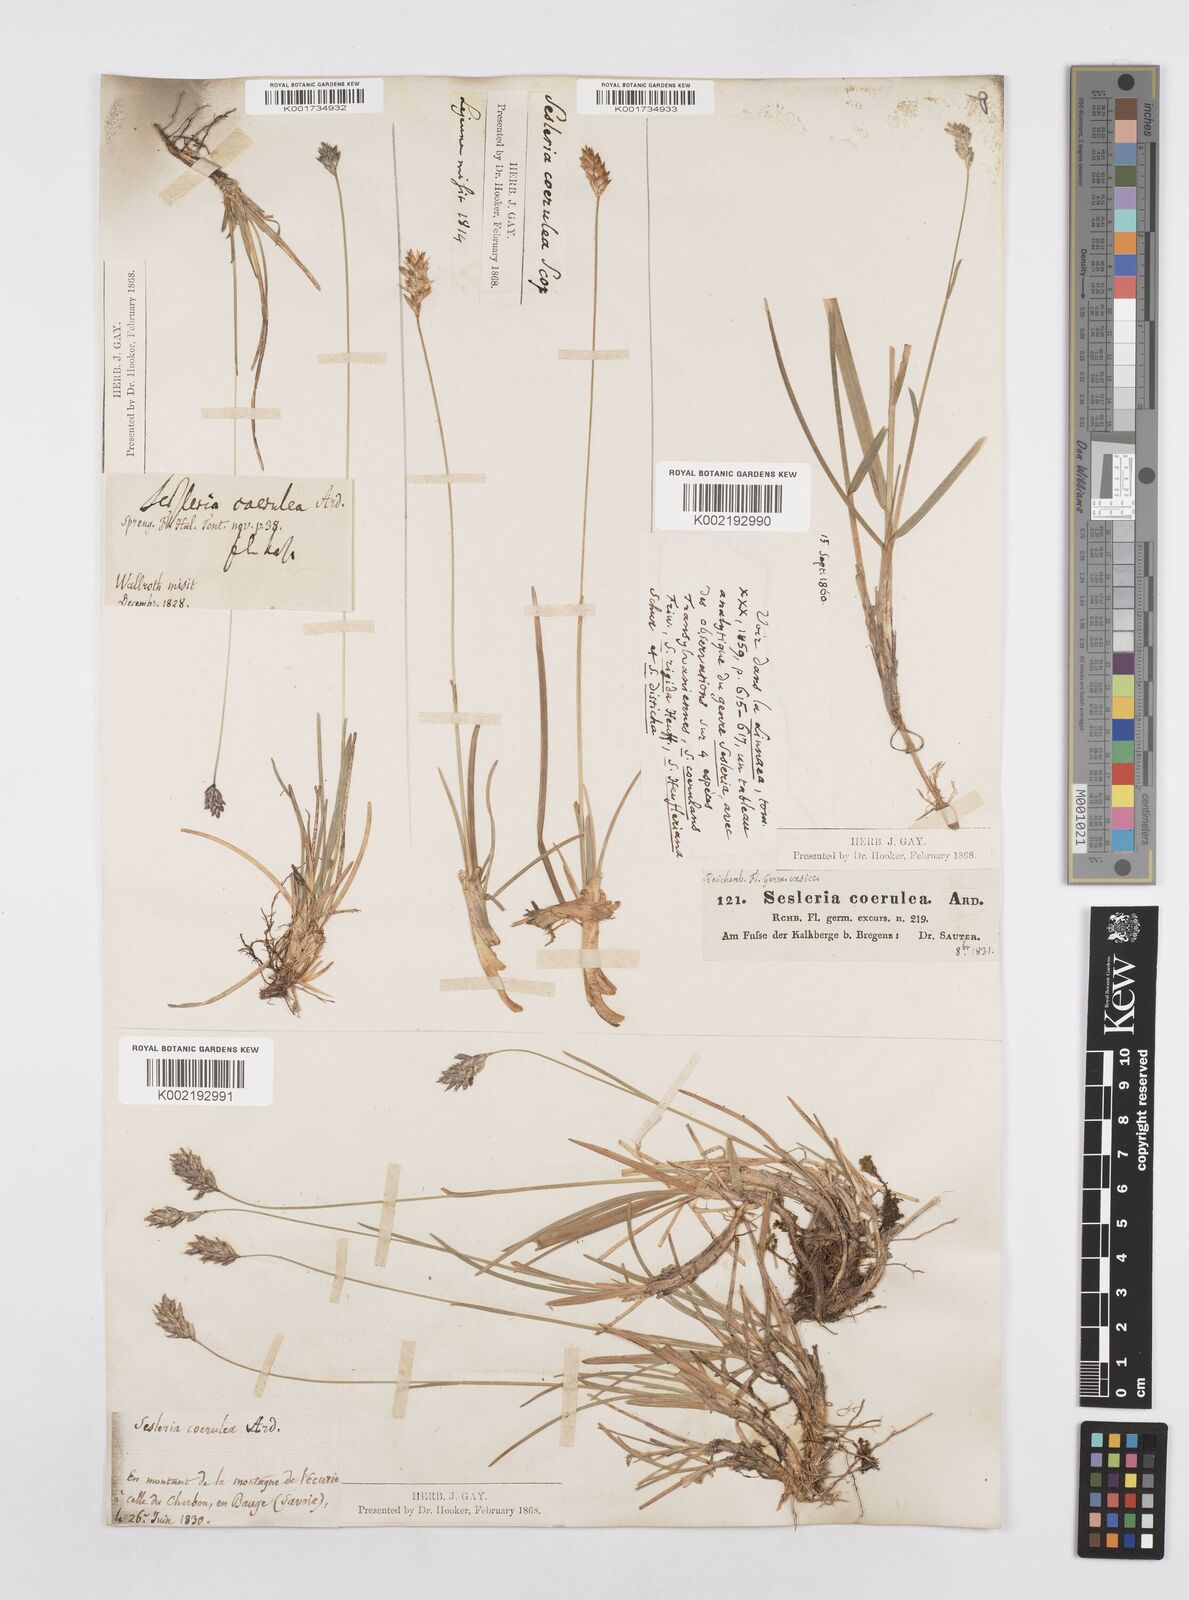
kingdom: Plantae
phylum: Tracheophyta
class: Liliopsida
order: Poales
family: Poaceae
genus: Sesleria
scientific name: Sesleria caerulea
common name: Blue moor-grass
